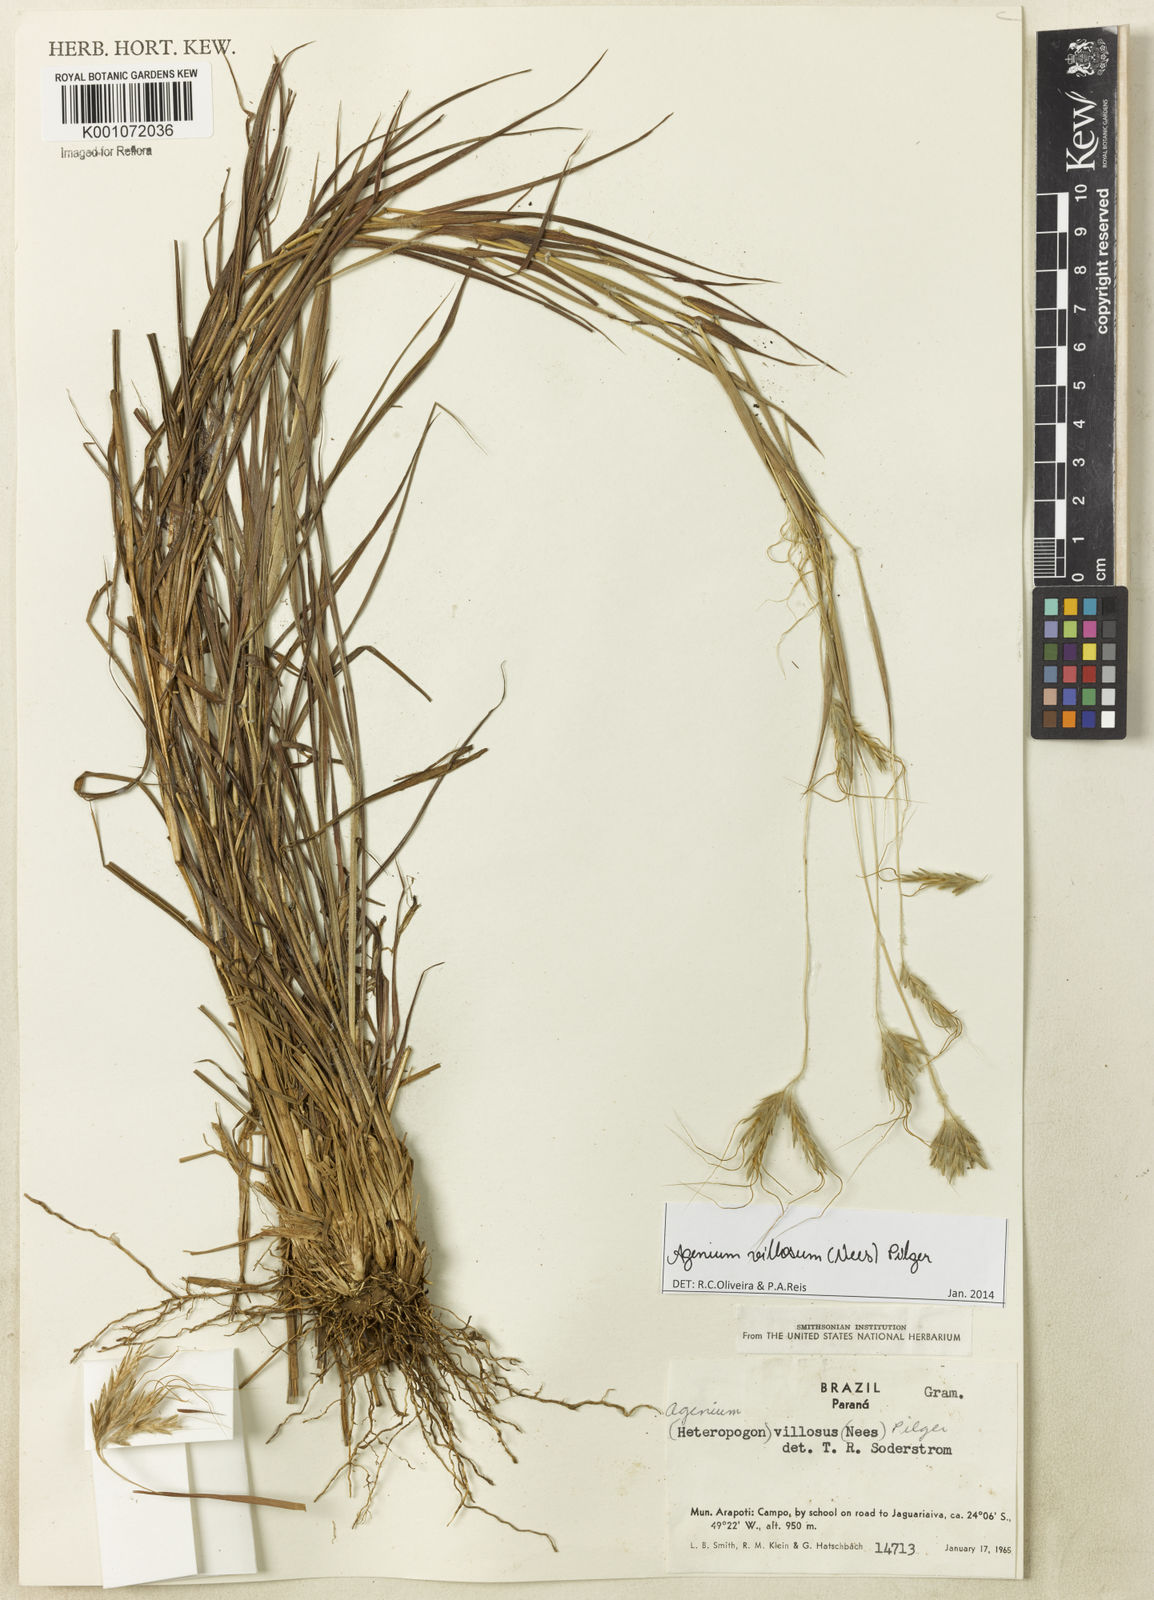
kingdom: Plantae
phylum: Tracheophyta
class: Liliopsida
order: Poales
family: Poaceae
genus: Agenium
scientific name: Agenium villosum
